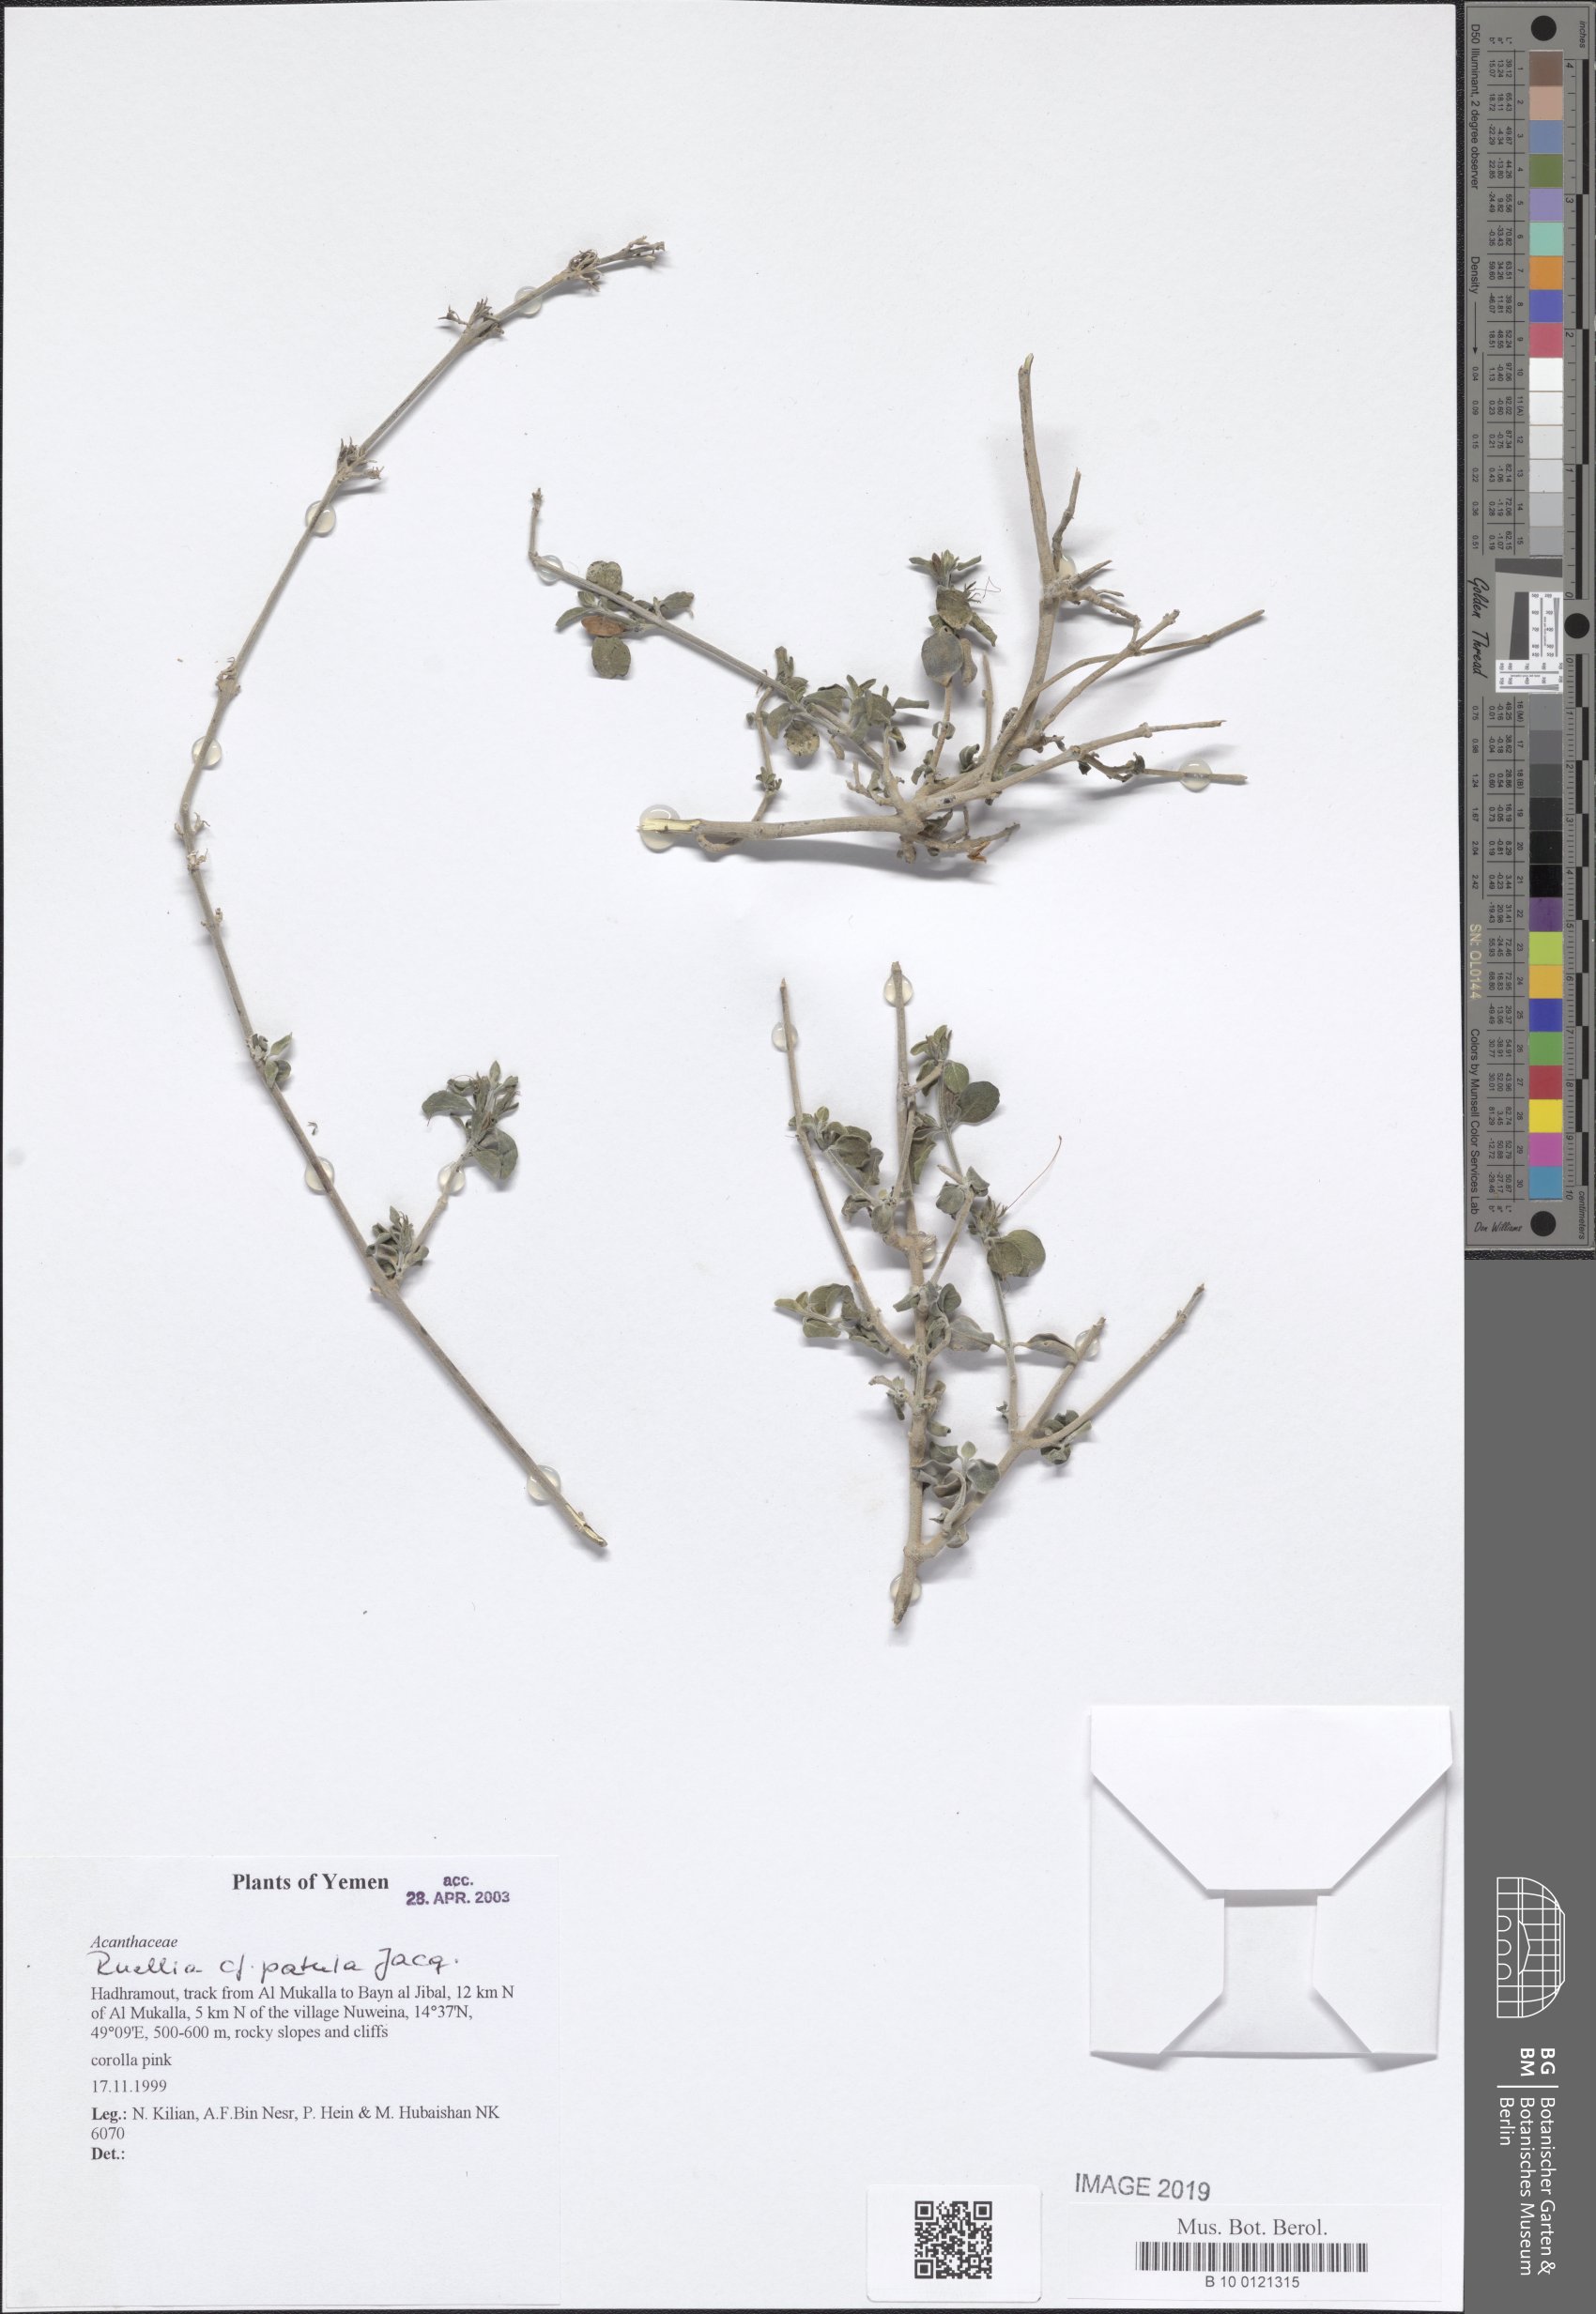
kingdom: Plantae
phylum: Tracheophyta
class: Magnoliopsida
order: Lamiales
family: Acanthaceae
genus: Ruellia
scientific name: Ruellia patula
